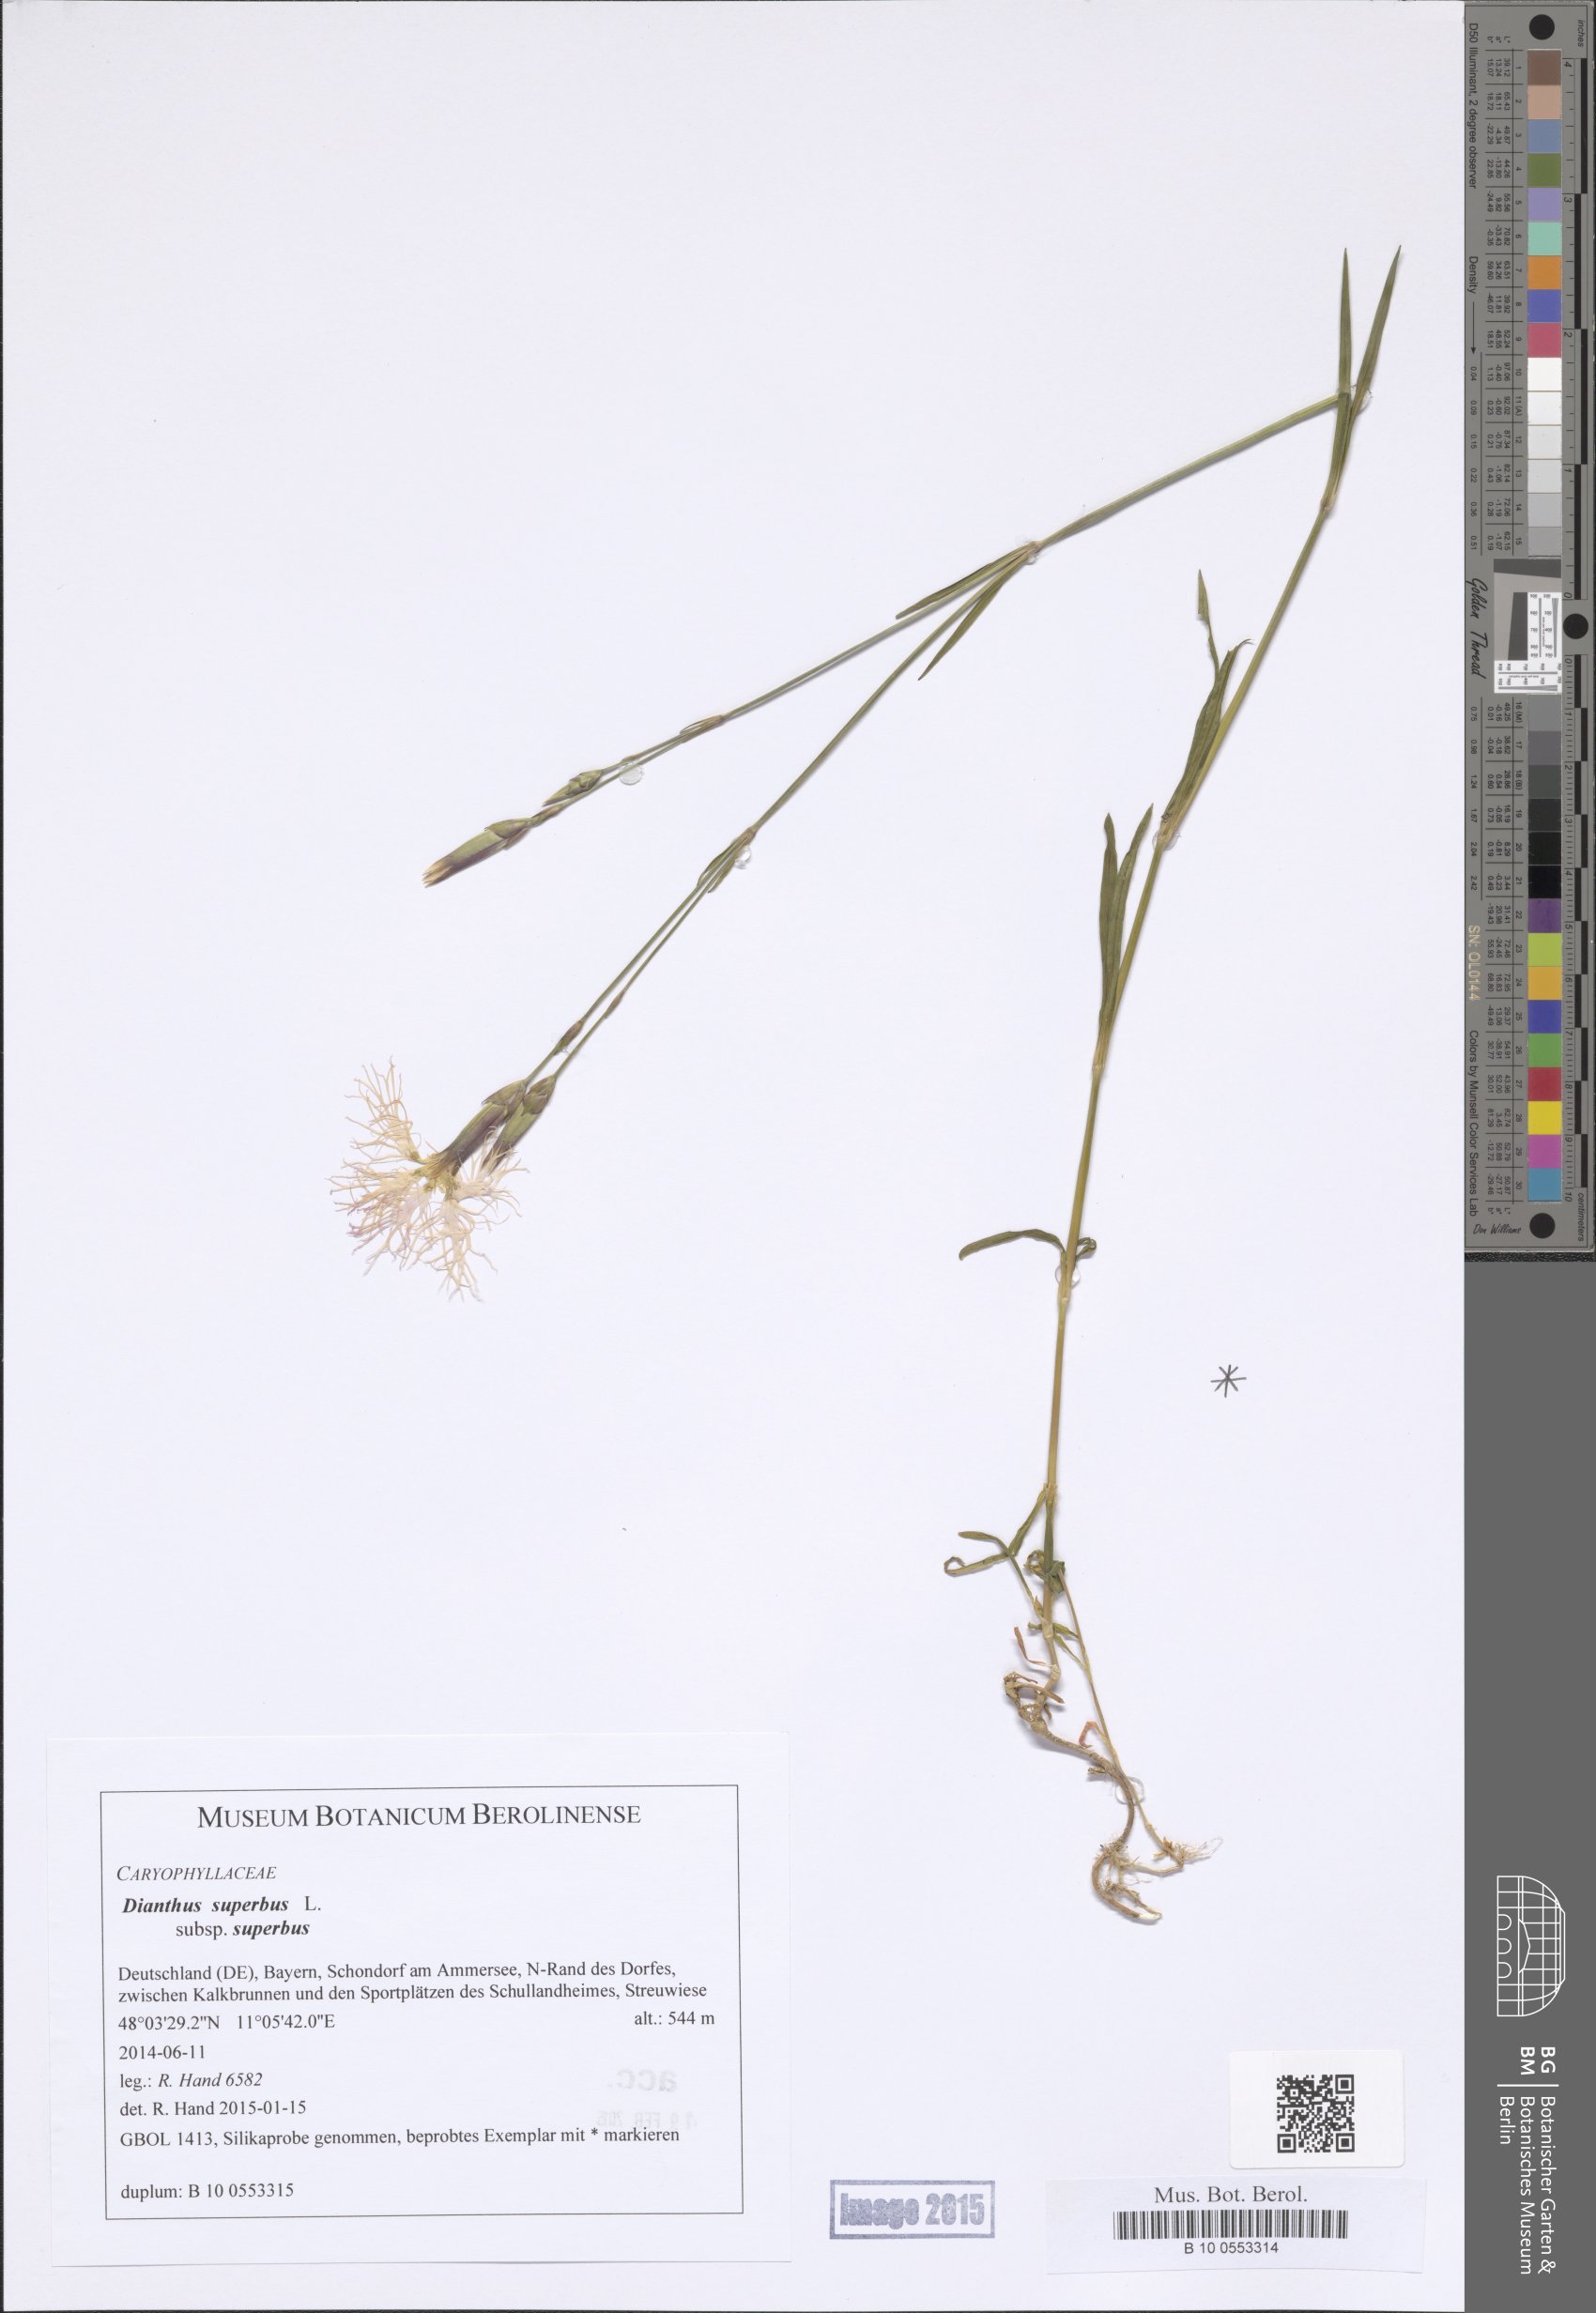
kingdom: Plantae
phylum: Tracheophyta
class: Magnoliopsida
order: Caryophyllales
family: Caryophyllaceae
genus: Dianthus
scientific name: Dianthus superbus
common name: Fringed pink
